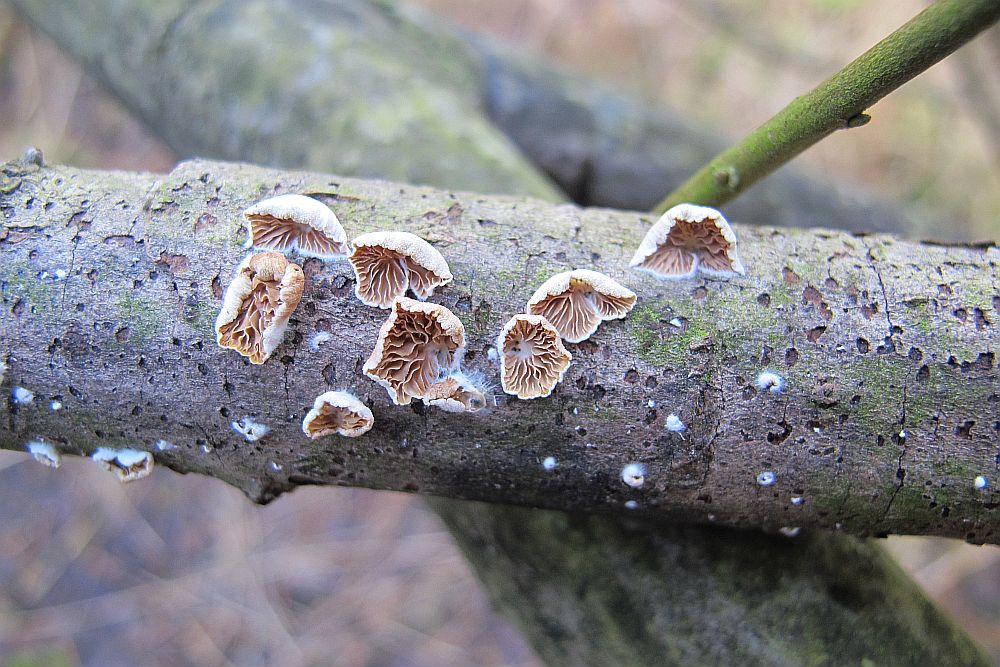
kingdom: Fungi
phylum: Basidiomycota
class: Agaricomycetes
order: Agaricales
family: Crepidotaceae
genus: Crepidotus
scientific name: Crepidotus cesatii
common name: almindelig muslingesvamp
